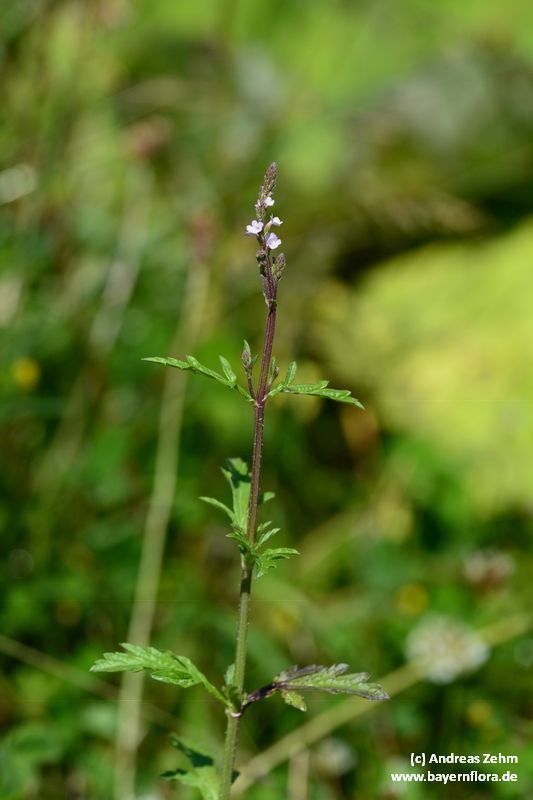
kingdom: Plantae
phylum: Tracheophyta
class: Magnoliopsida
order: Lamiales
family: Verbenaceae
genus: Verbena
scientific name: Verbena officinalis
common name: Vervain
